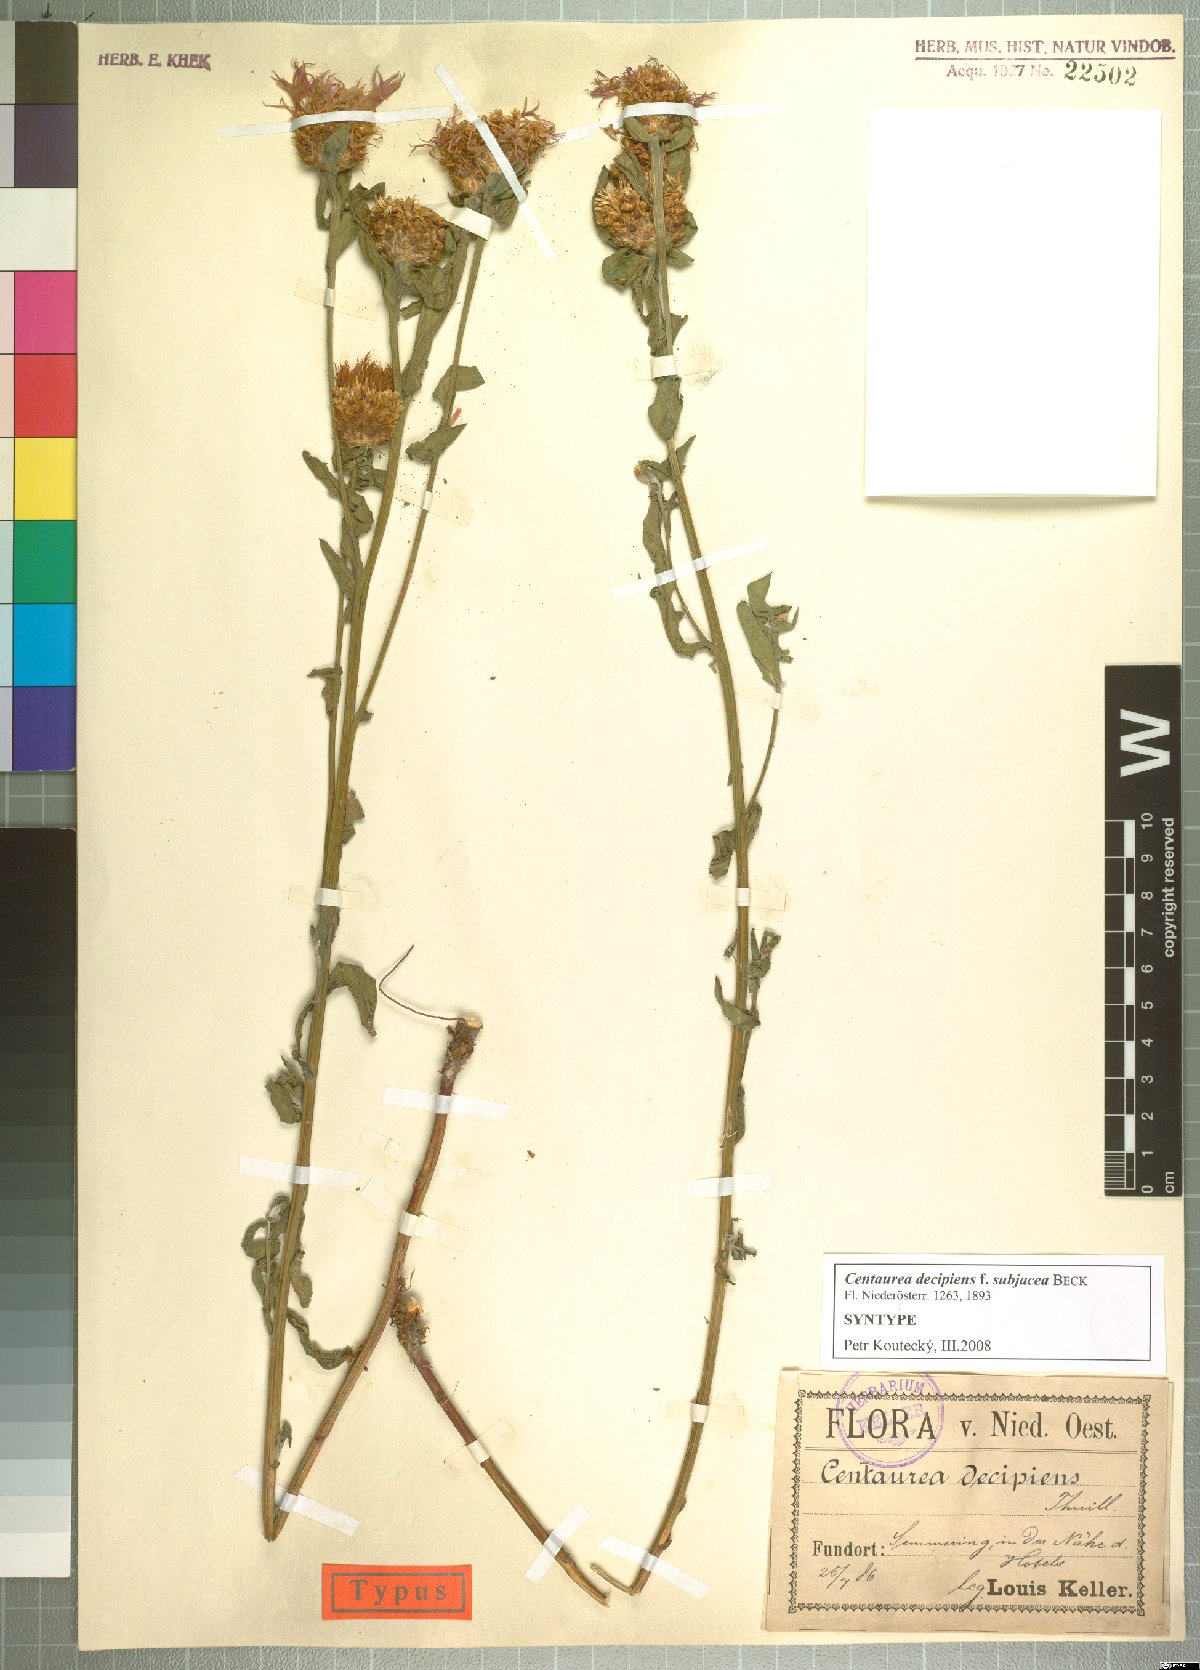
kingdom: Plantae
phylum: Tracheophyta
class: Magnoliopsida
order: Asterales
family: Asteraceae
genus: Centaurea
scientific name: Centaurea preissmannii
